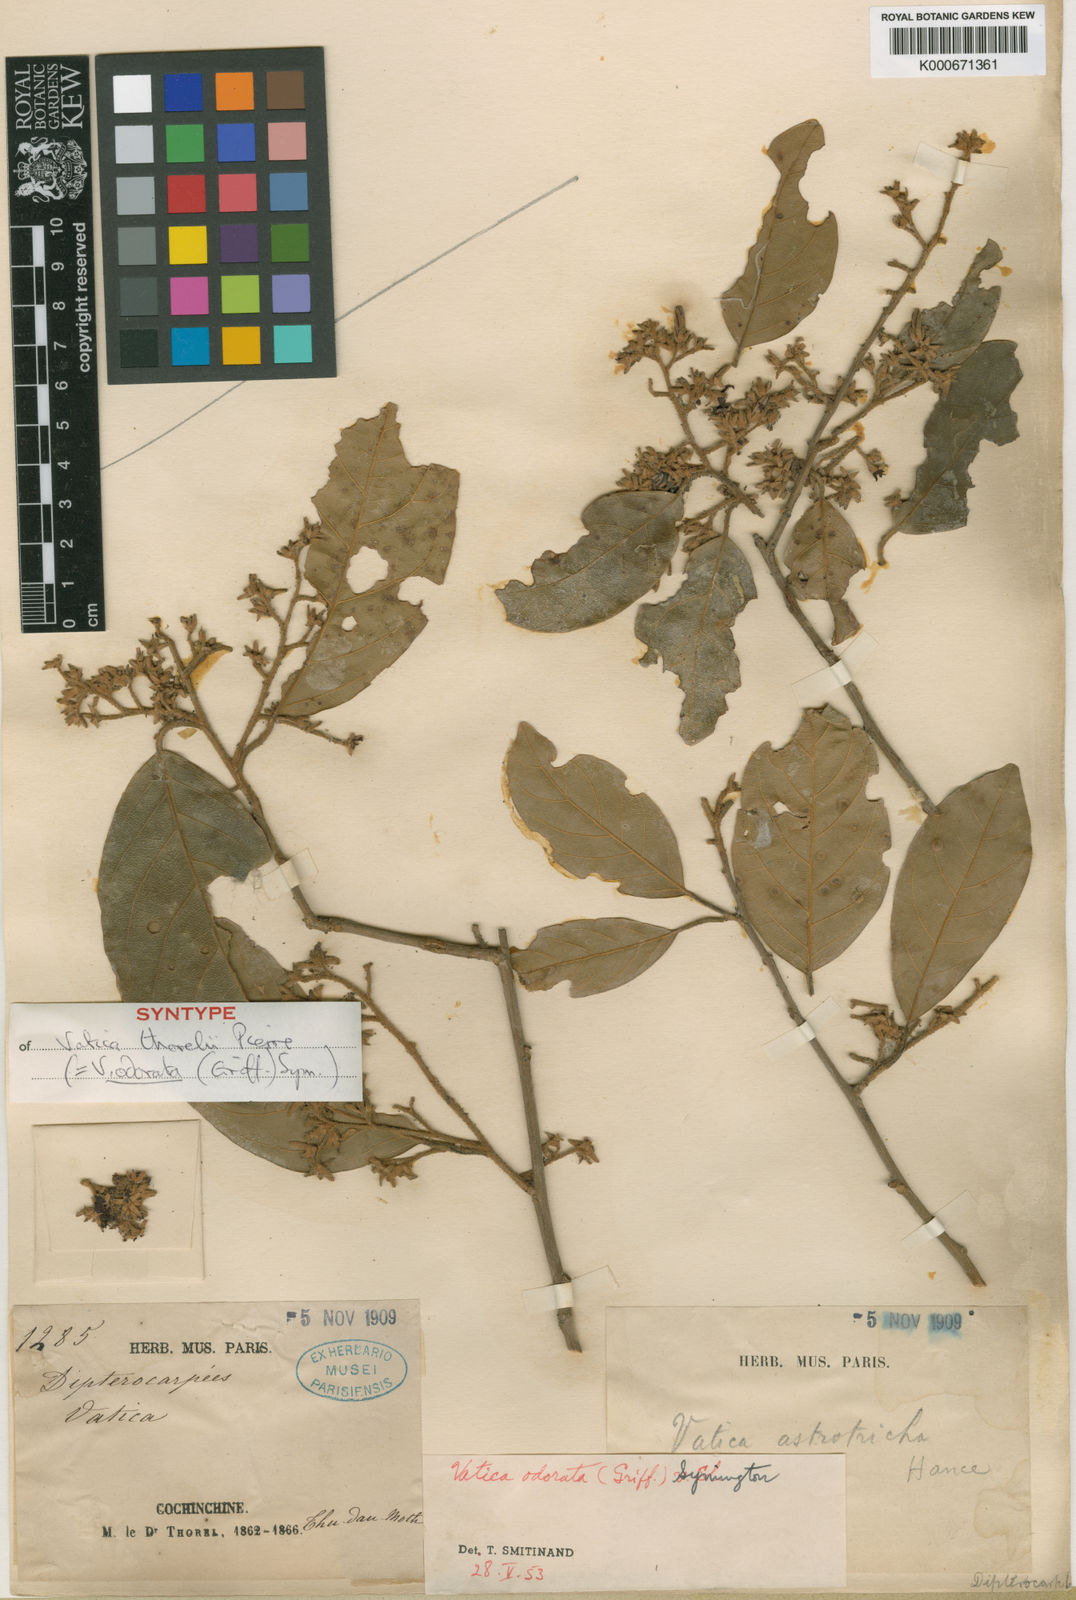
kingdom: Plantae
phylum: Tracheophyta
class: Magnoliopsida
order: Malvales
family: Dipterocarpaceae
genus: Vatica
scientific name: Vatica odorata
